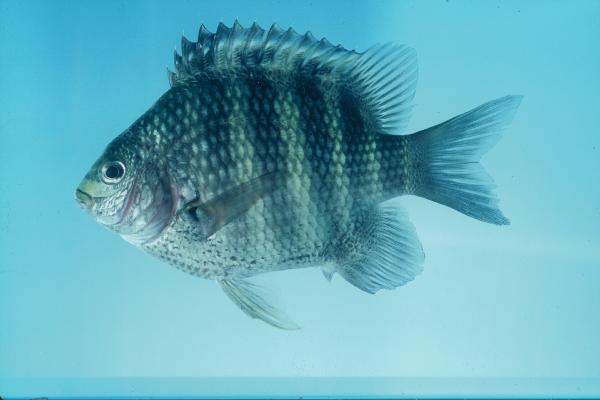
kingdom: Animalia
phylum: Chordata
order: Perciformes
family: Pomacentridae
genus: Abudefduf
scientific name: Abudefduf septemfasciatus
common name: Banded sergeant
